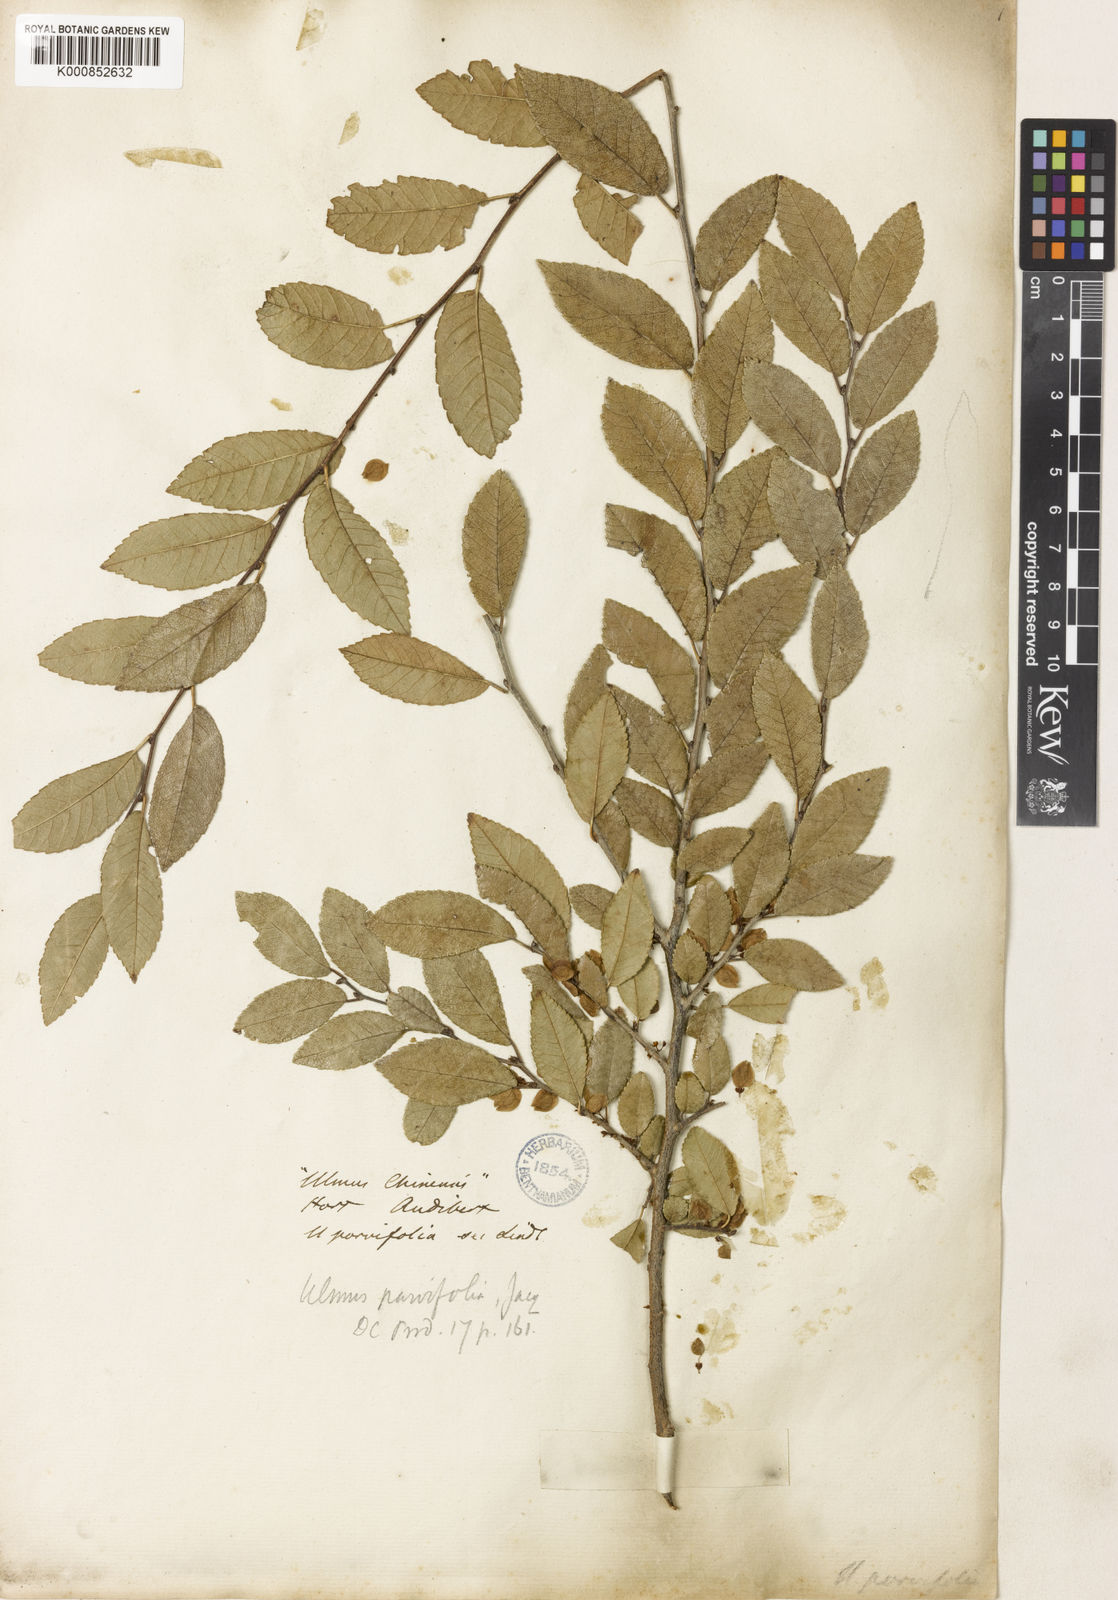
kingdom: Plantae
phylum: Tracheophyta
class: Magnoliopsida
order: Rosales
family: Ulmaceae
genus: Ulmus
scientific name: Ulmus parvifolia
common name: Chinese elm
